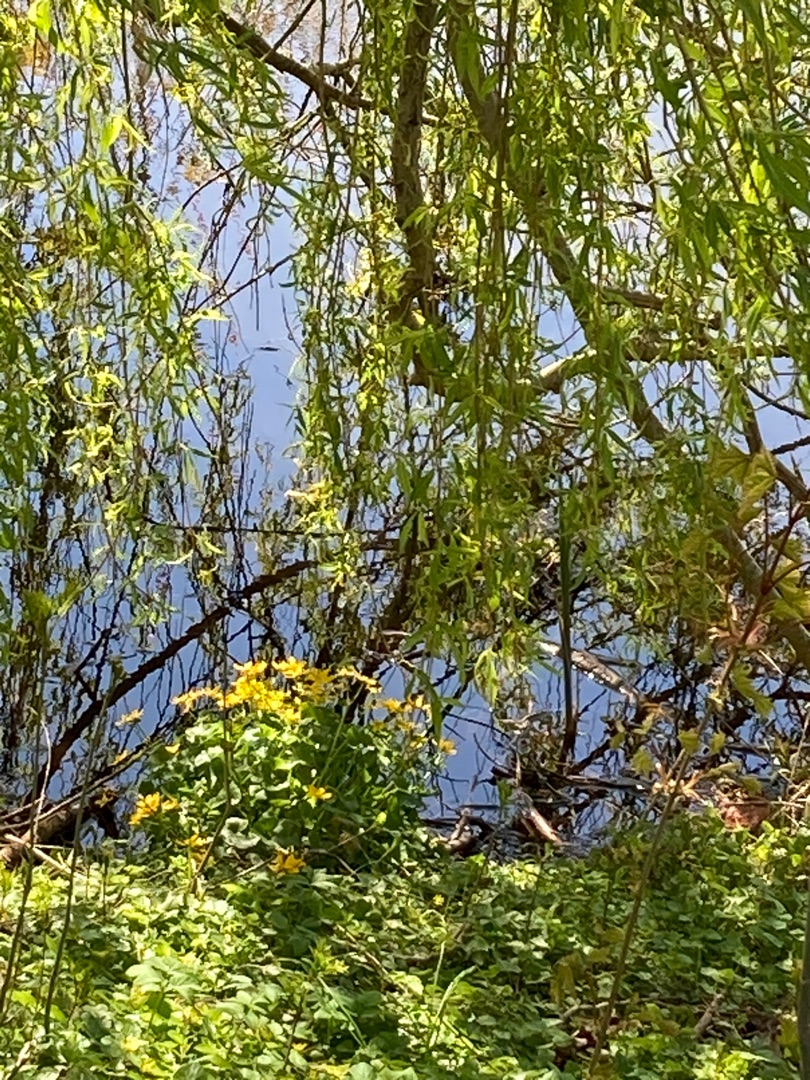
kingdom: Plantae
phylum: Tracheophyta
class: Magnoliopsida
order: Ranunculales
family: Ranunculaceae
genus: Caltha
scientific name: Caltha palustris
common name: Eng-kabbeleje
